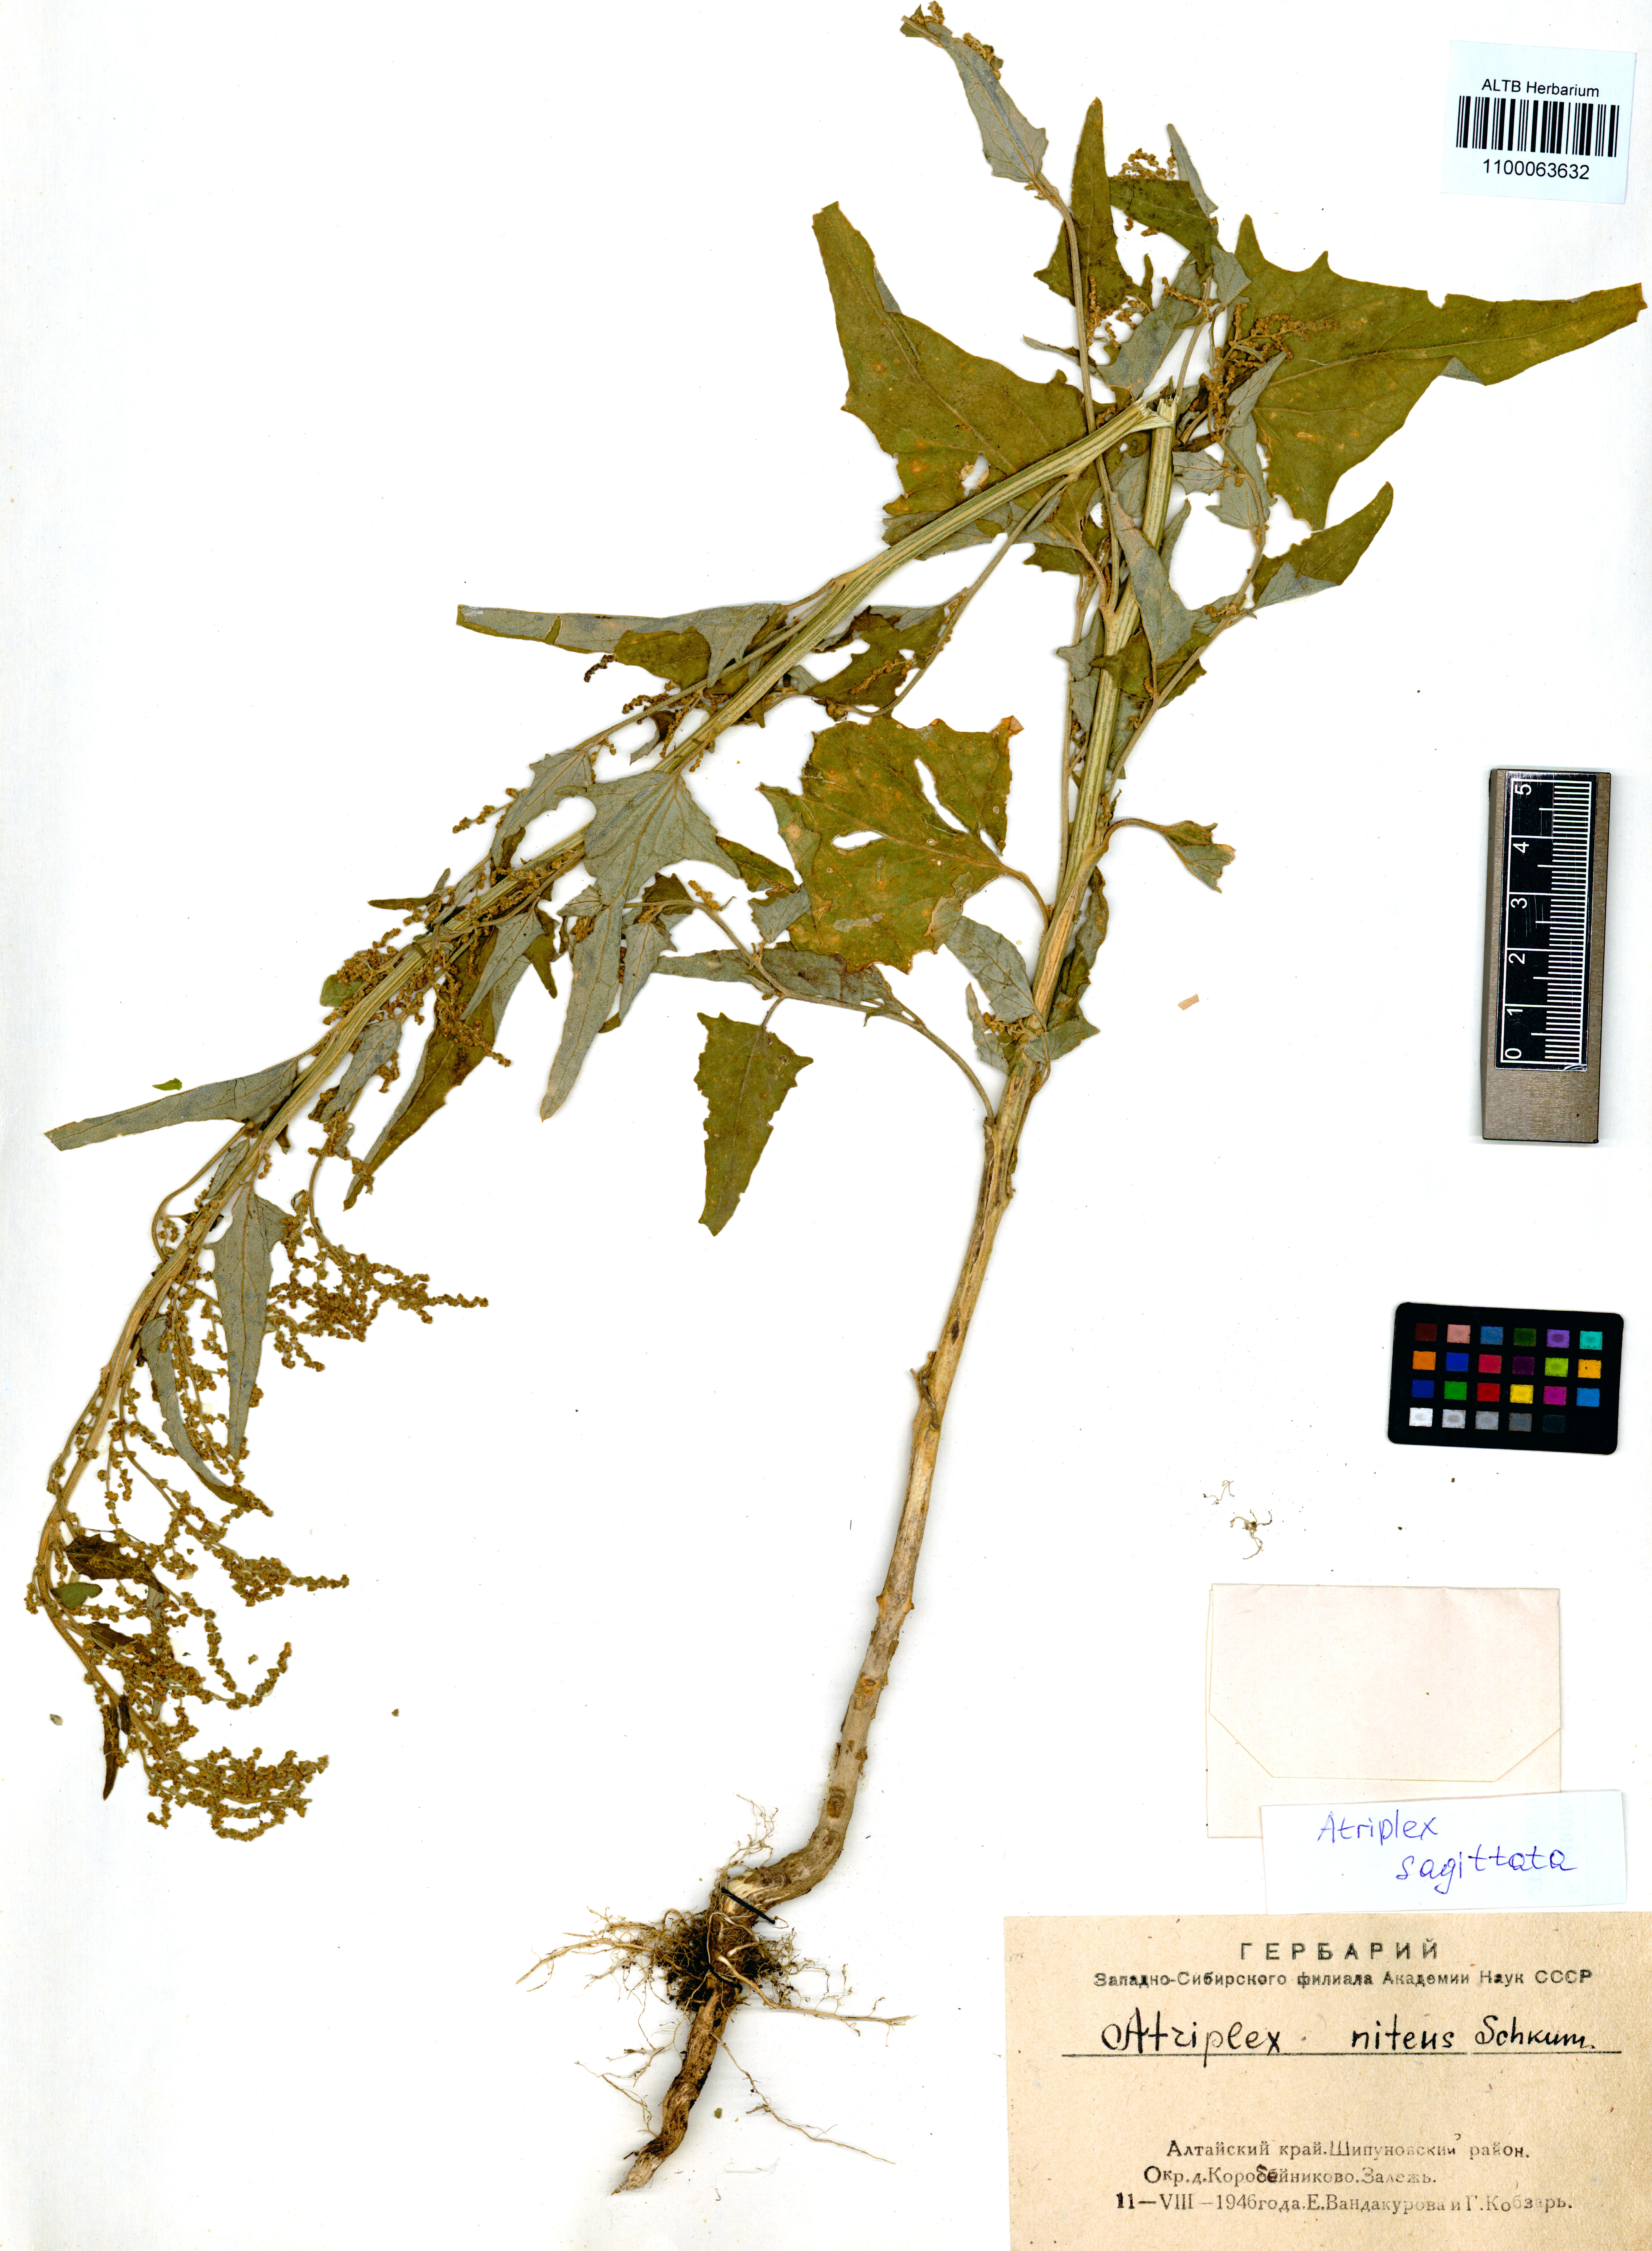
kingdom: Plantae
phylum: Tracheophyta
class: Magnoliopsida
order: Caryophyllales
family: Amaranthaceae
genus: Atriplex
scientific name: Atriplex sagittata
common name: Purple orache
